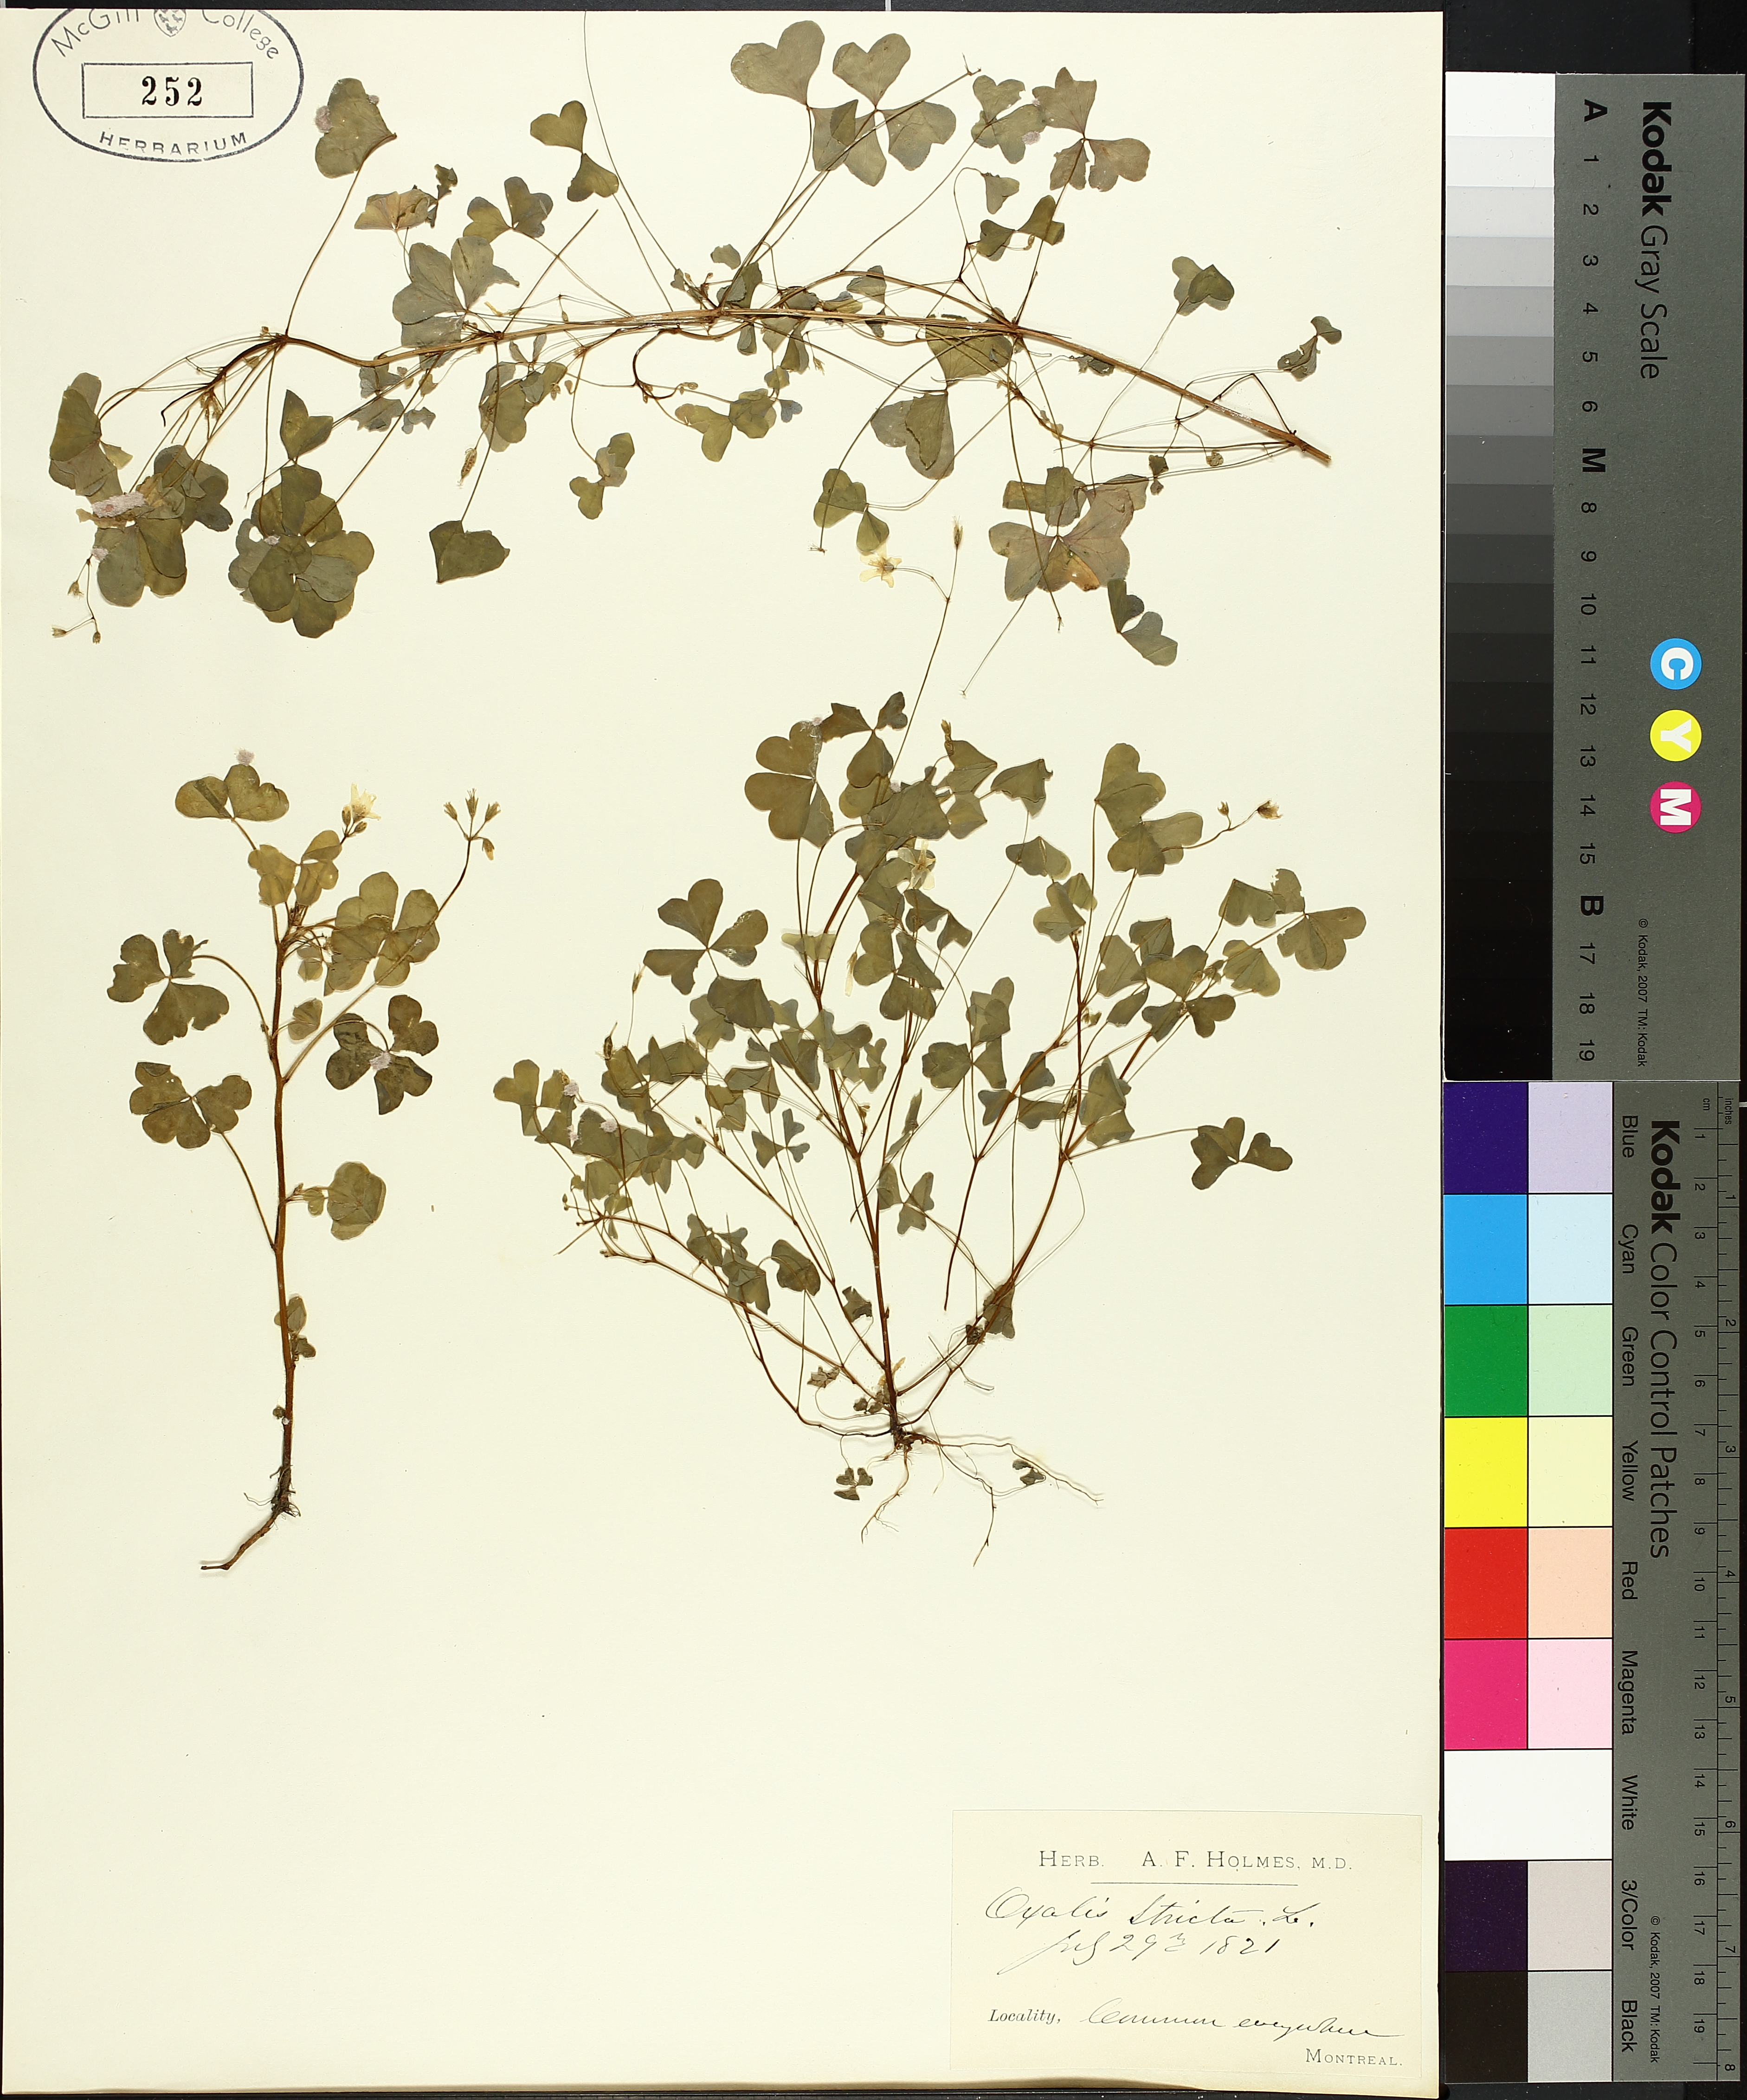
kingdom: Plantae
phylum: Tracheophyta
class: Magnoliopsida
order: Oxalidales
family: Oxalidaceae
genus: Oxalis
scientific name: Oxalis stricta
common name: Upright yellow-sorrel
